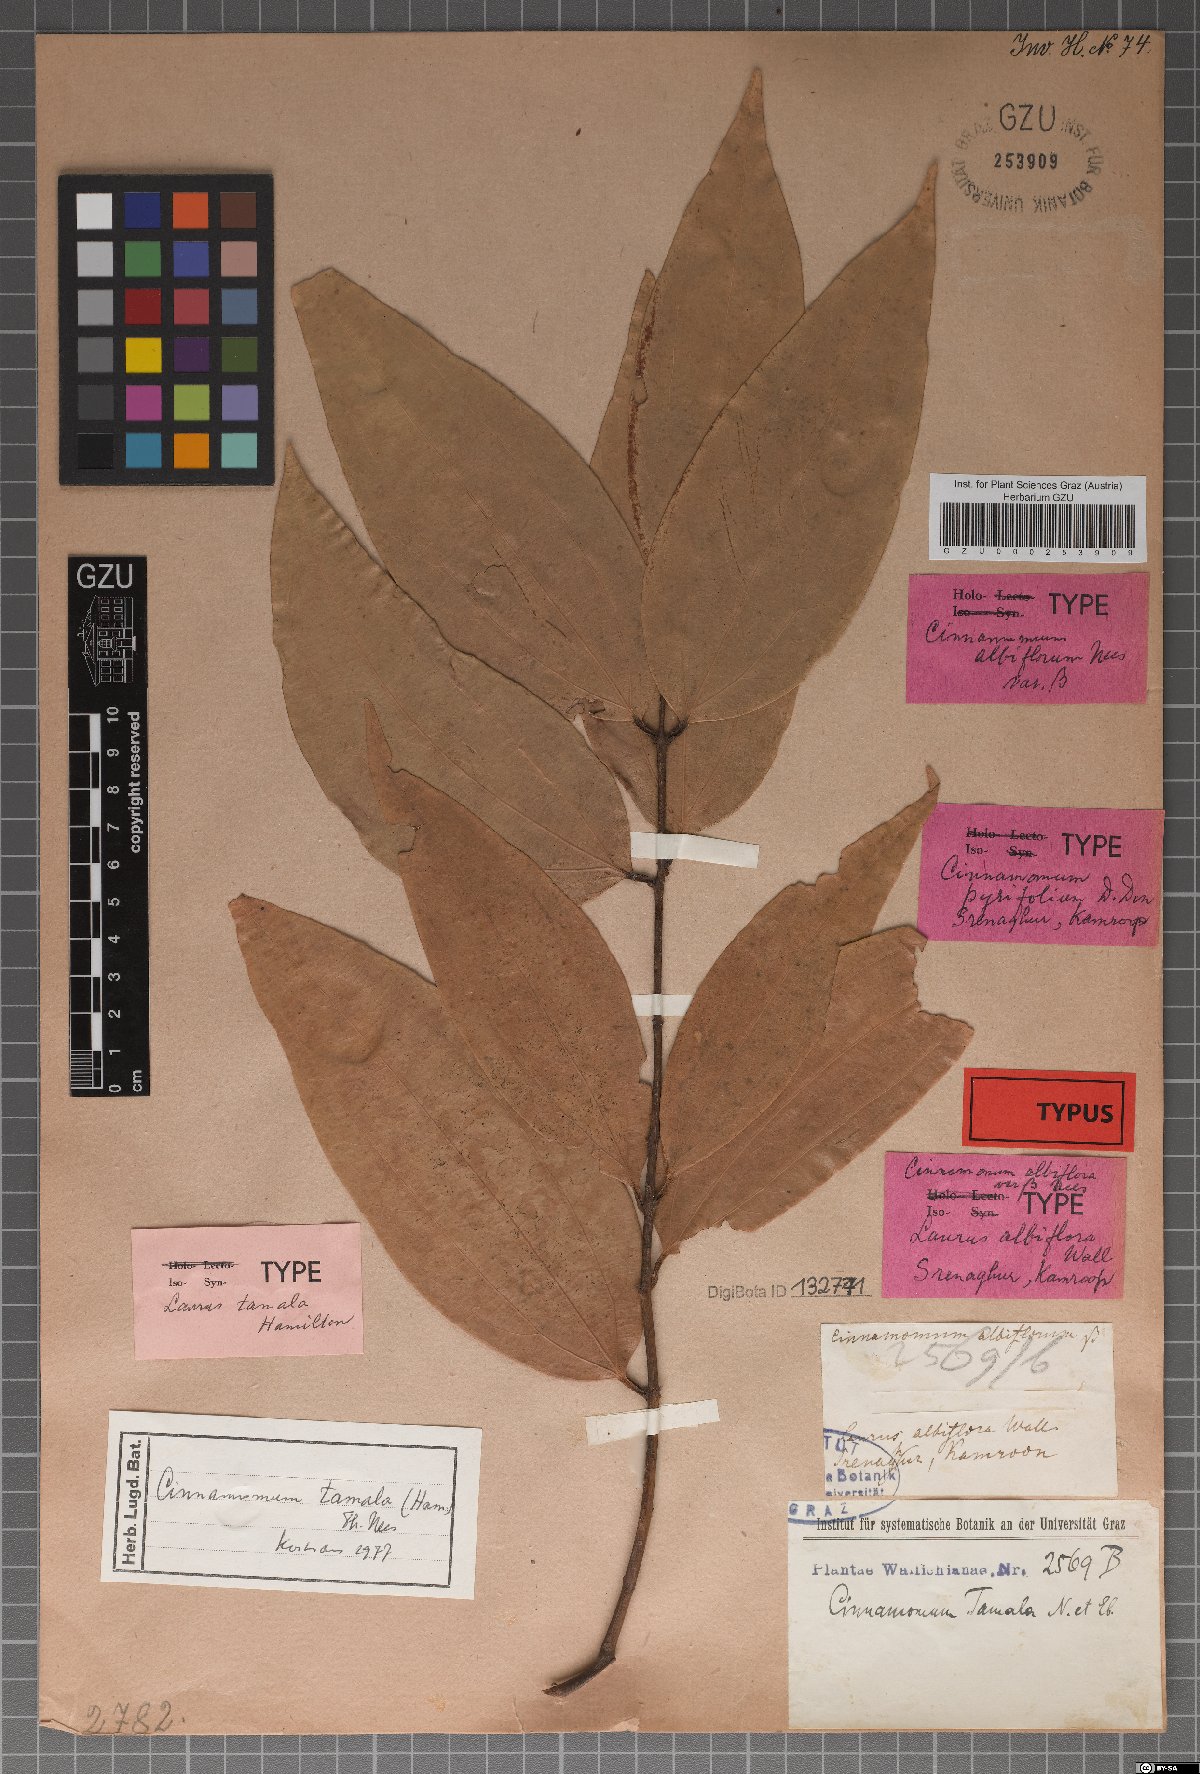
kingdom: Plantae
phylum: Tracheophyta
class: Magnoliopsida
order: Laurales
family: Lauraceae
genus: Cinnamomum
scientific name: Cinnamomum tamala
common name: Indian bay leaves
